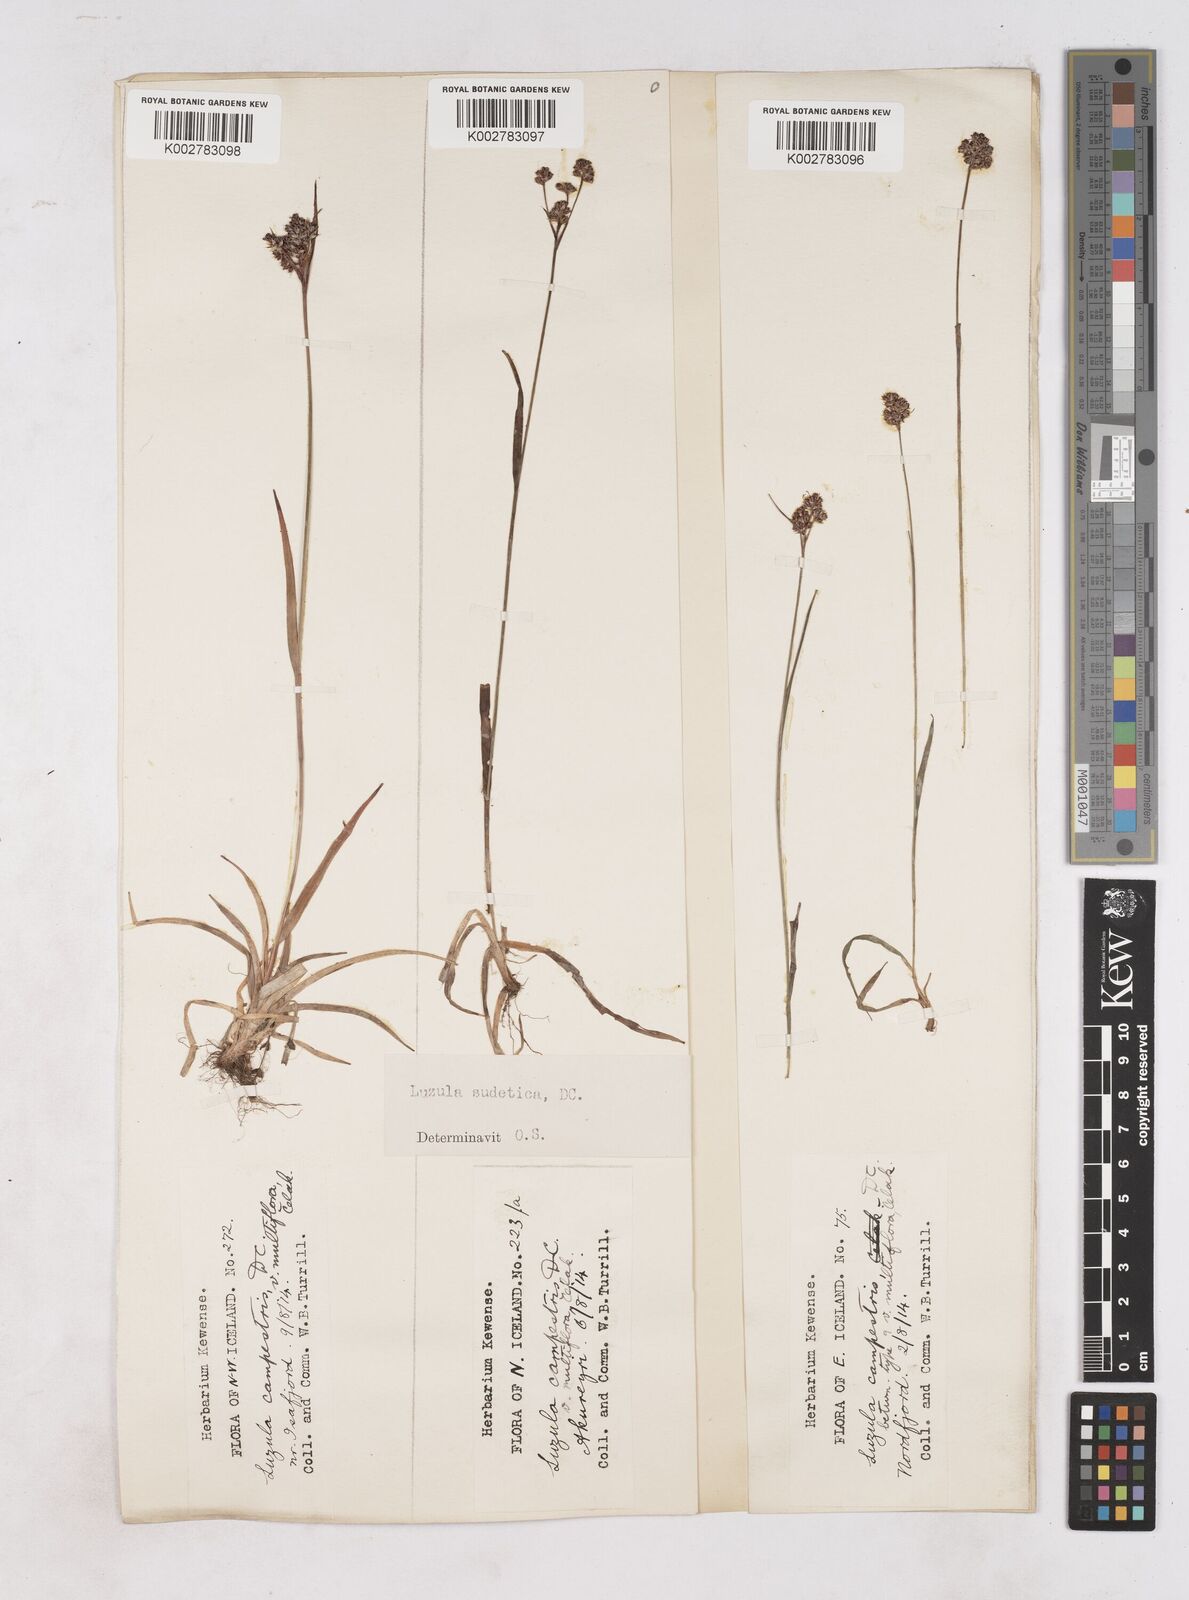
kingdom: Plantae
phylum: Tracheophyta
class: Liliopsida
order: Poales
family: Juncaceae
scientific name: Juncaceae
